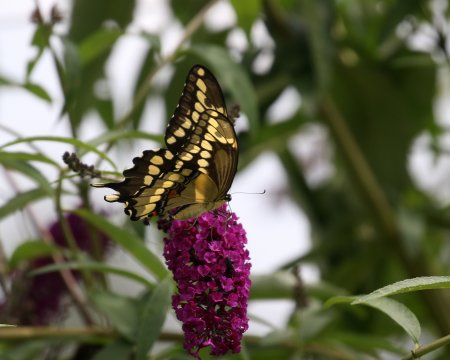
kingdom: Animalia
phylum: Arthropoda
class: Insecta
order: Lepidoptera
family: Papilionidae
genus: Papilio
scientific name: Papilio cresphontes
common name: Eastern Giant Swallowtail
